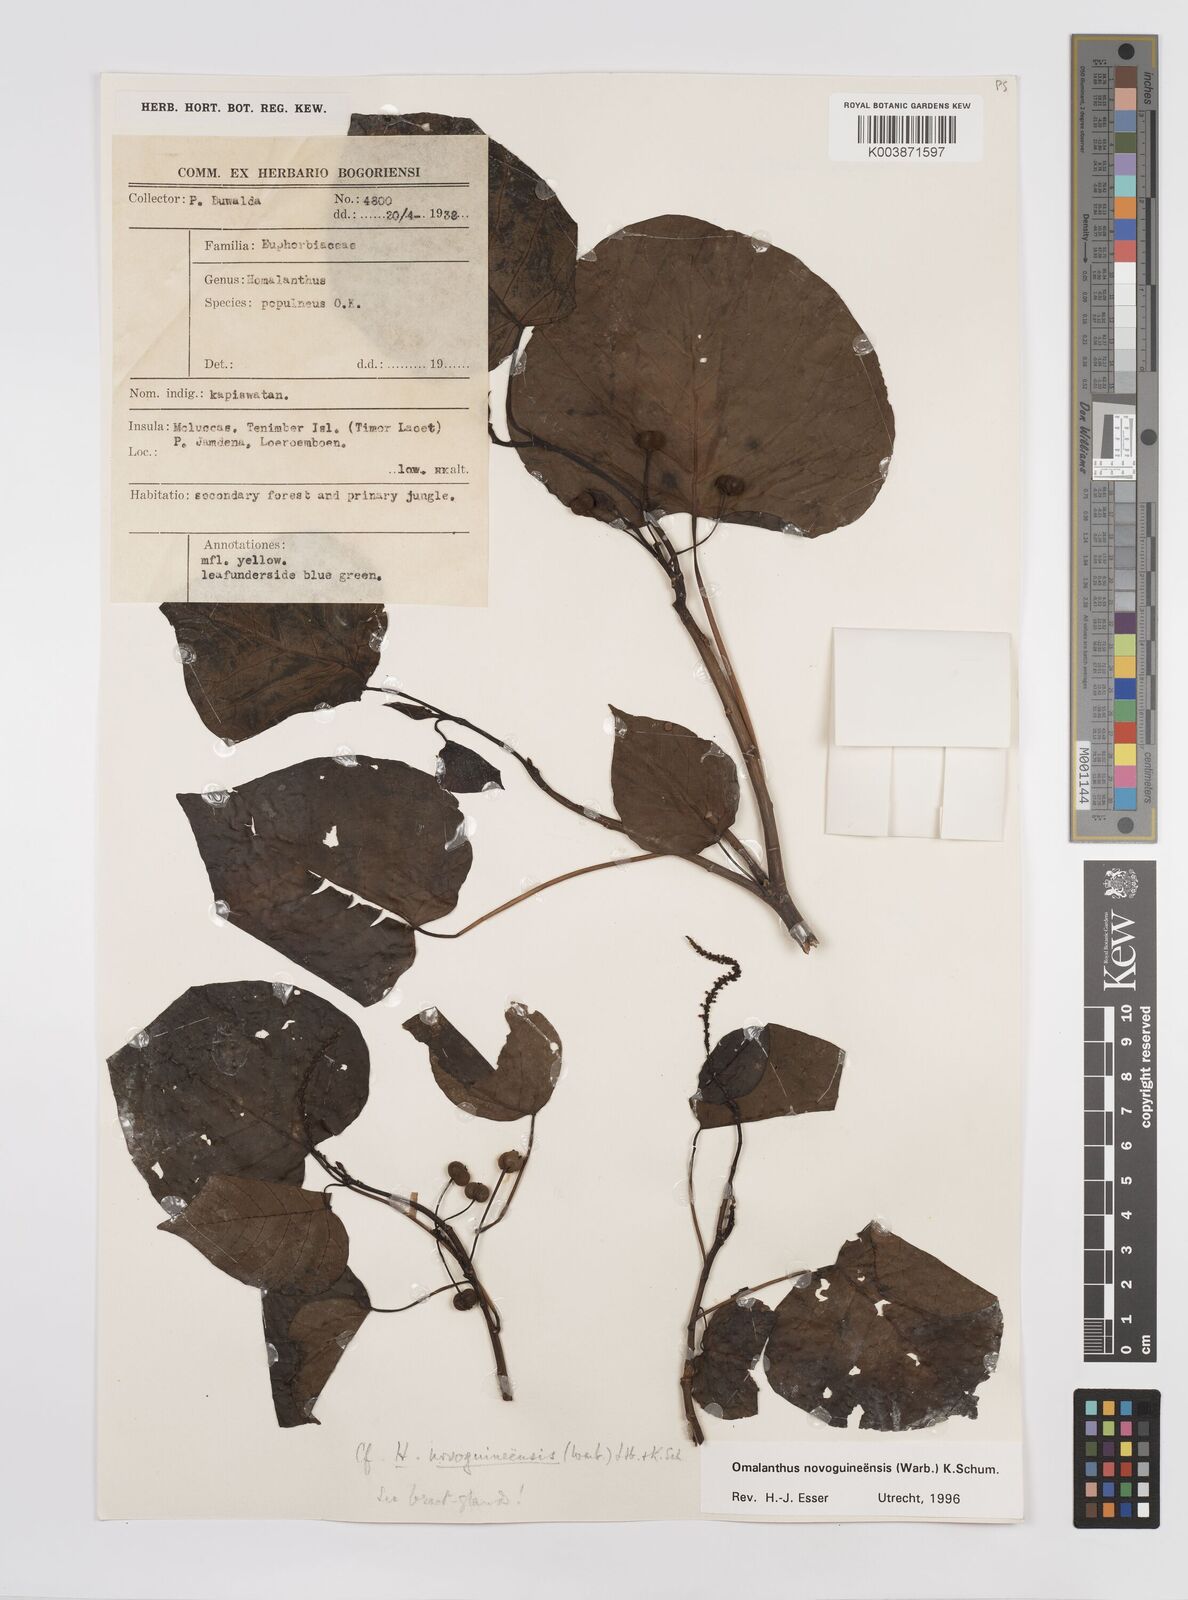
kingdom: Plantae
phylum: Tracheophyta
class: Magnoliopsida
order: Malpighiales
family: Euphorbiaceae
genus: Homalanthus
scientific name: Homalanthus novoguineensis
